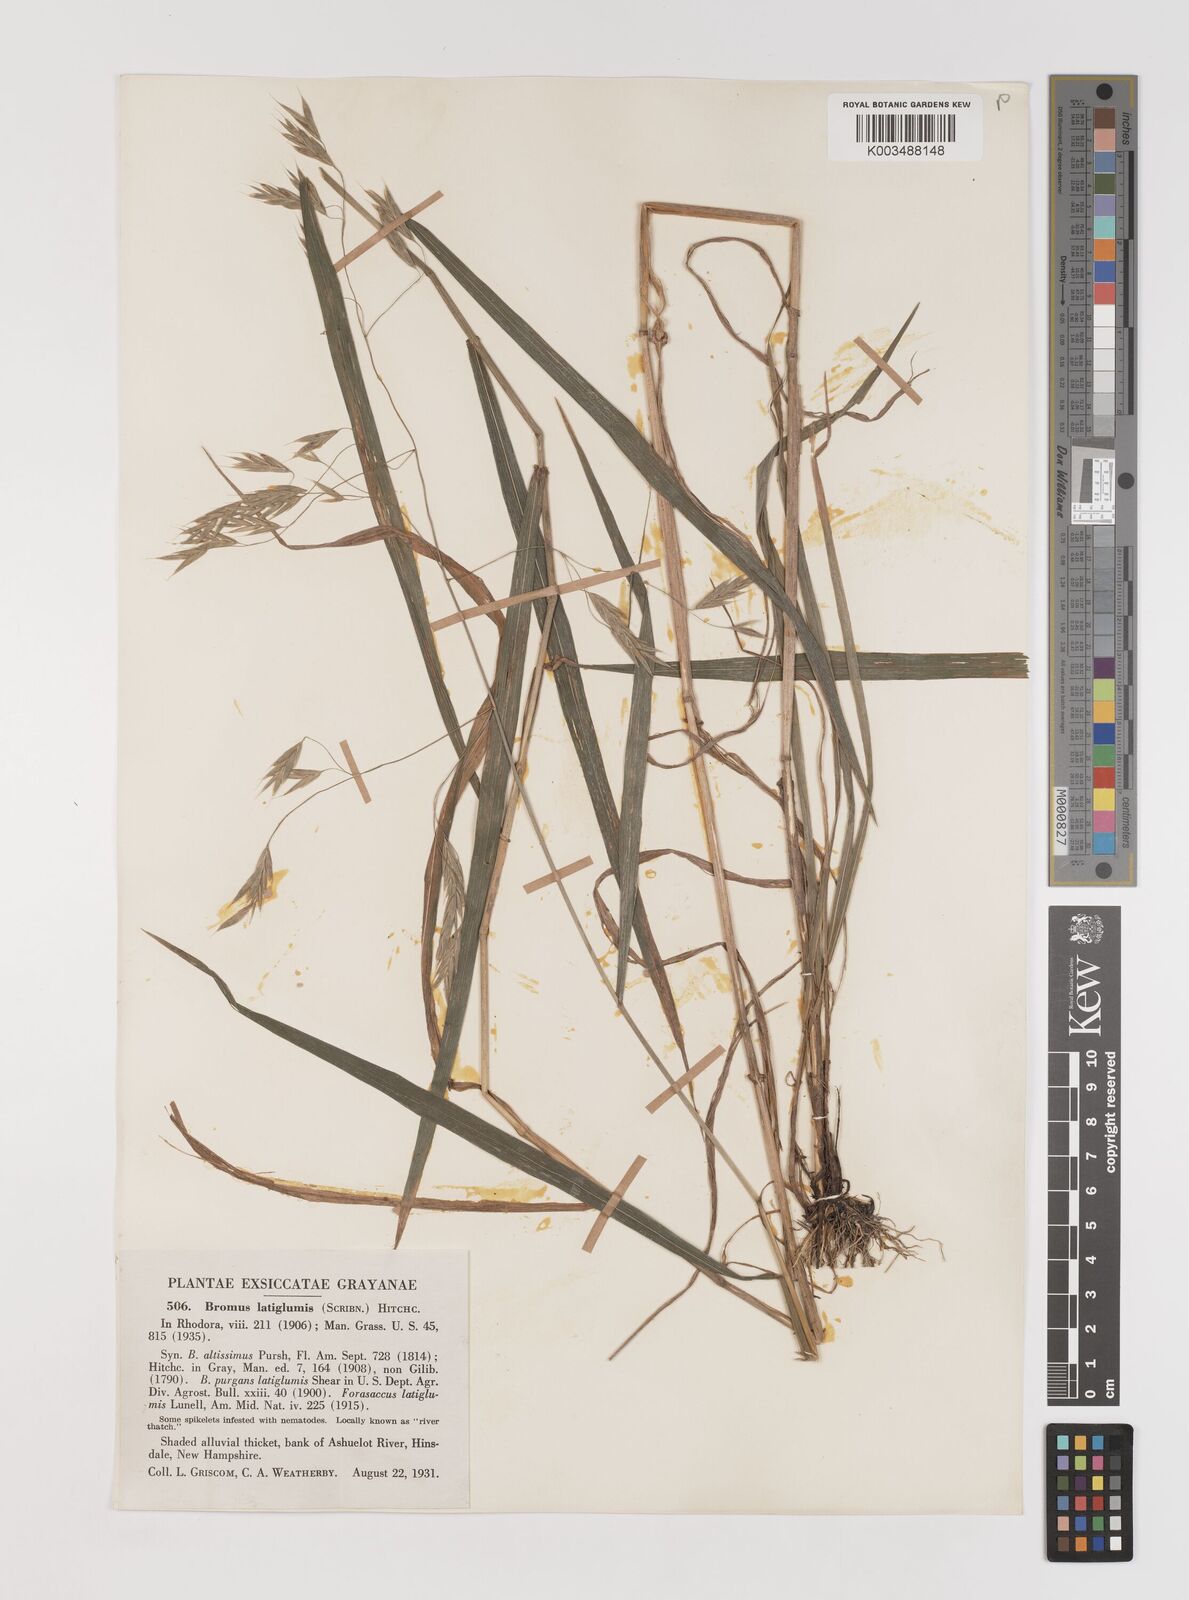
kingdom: Plantae
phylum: Tracheophyta
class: Liliopsida
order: Poales
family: Poaceae
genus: Bromus
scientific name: Bromus latiglumis
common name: Broad-glumed brome
